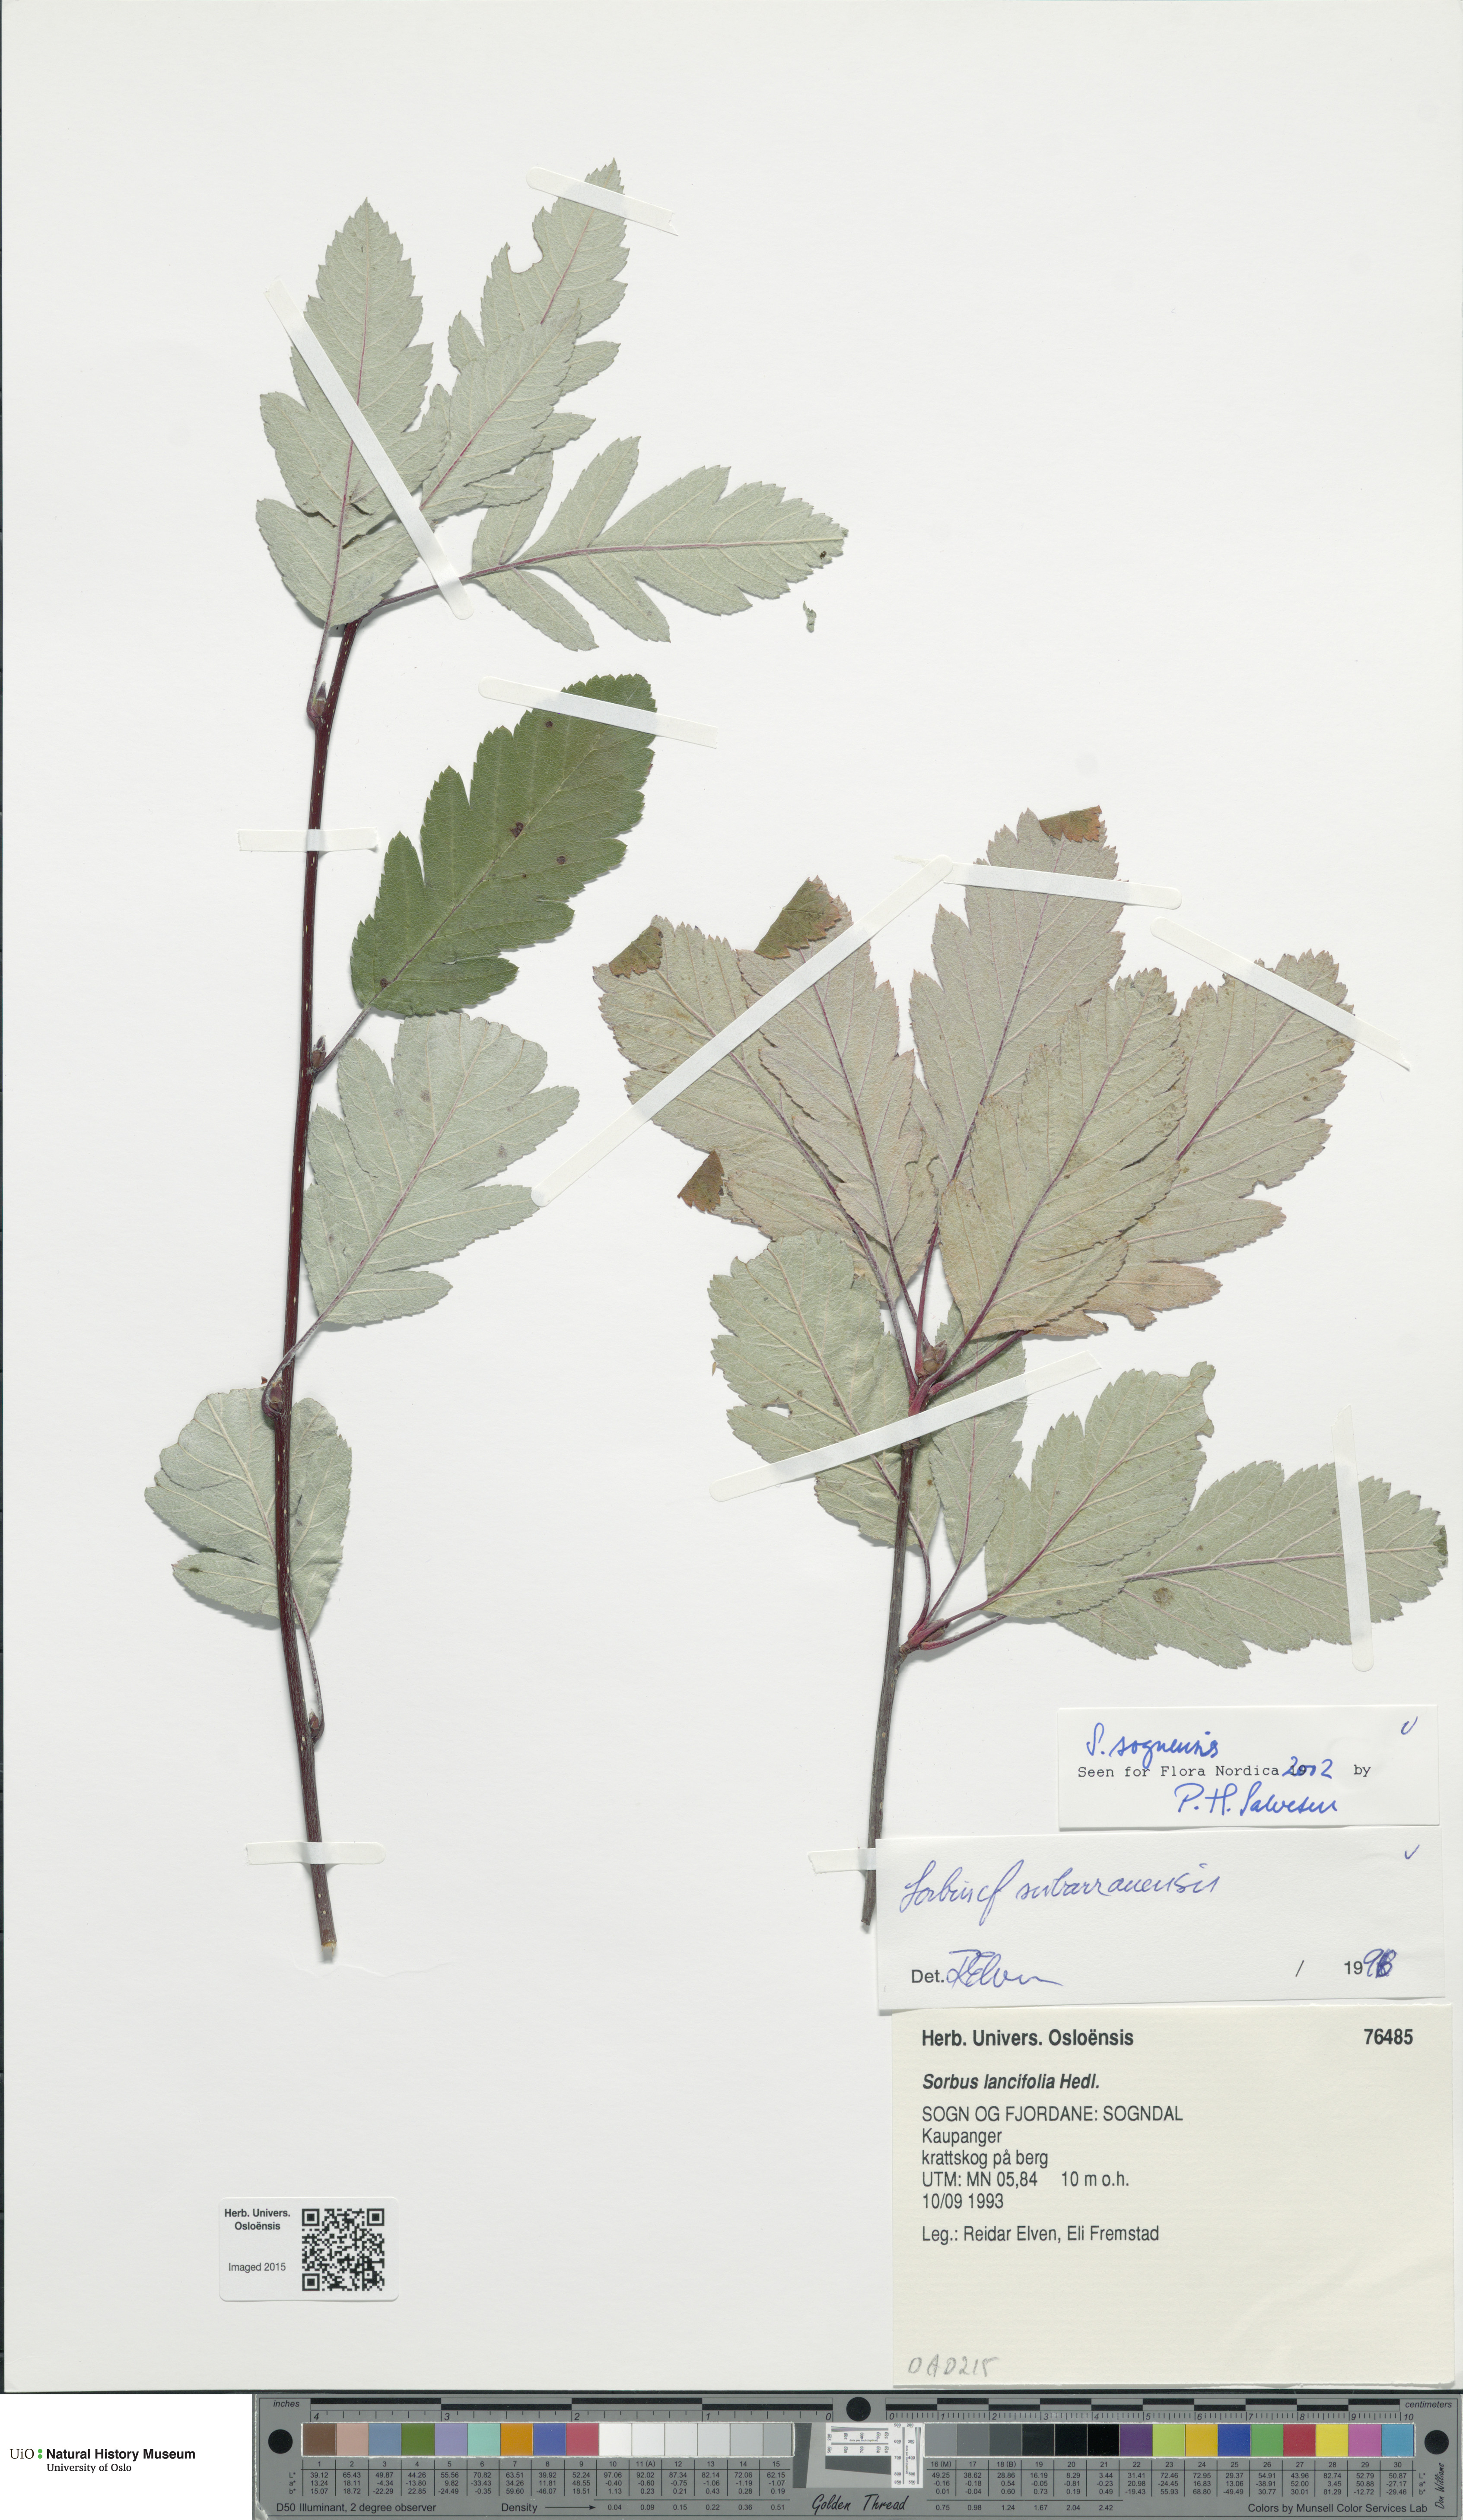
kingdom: Plantae
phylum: Tracheophyta
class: Magnoliopsida
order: Rosales
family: Rosaceae
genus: Hedlundia
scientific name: Hedlundia sognensis
